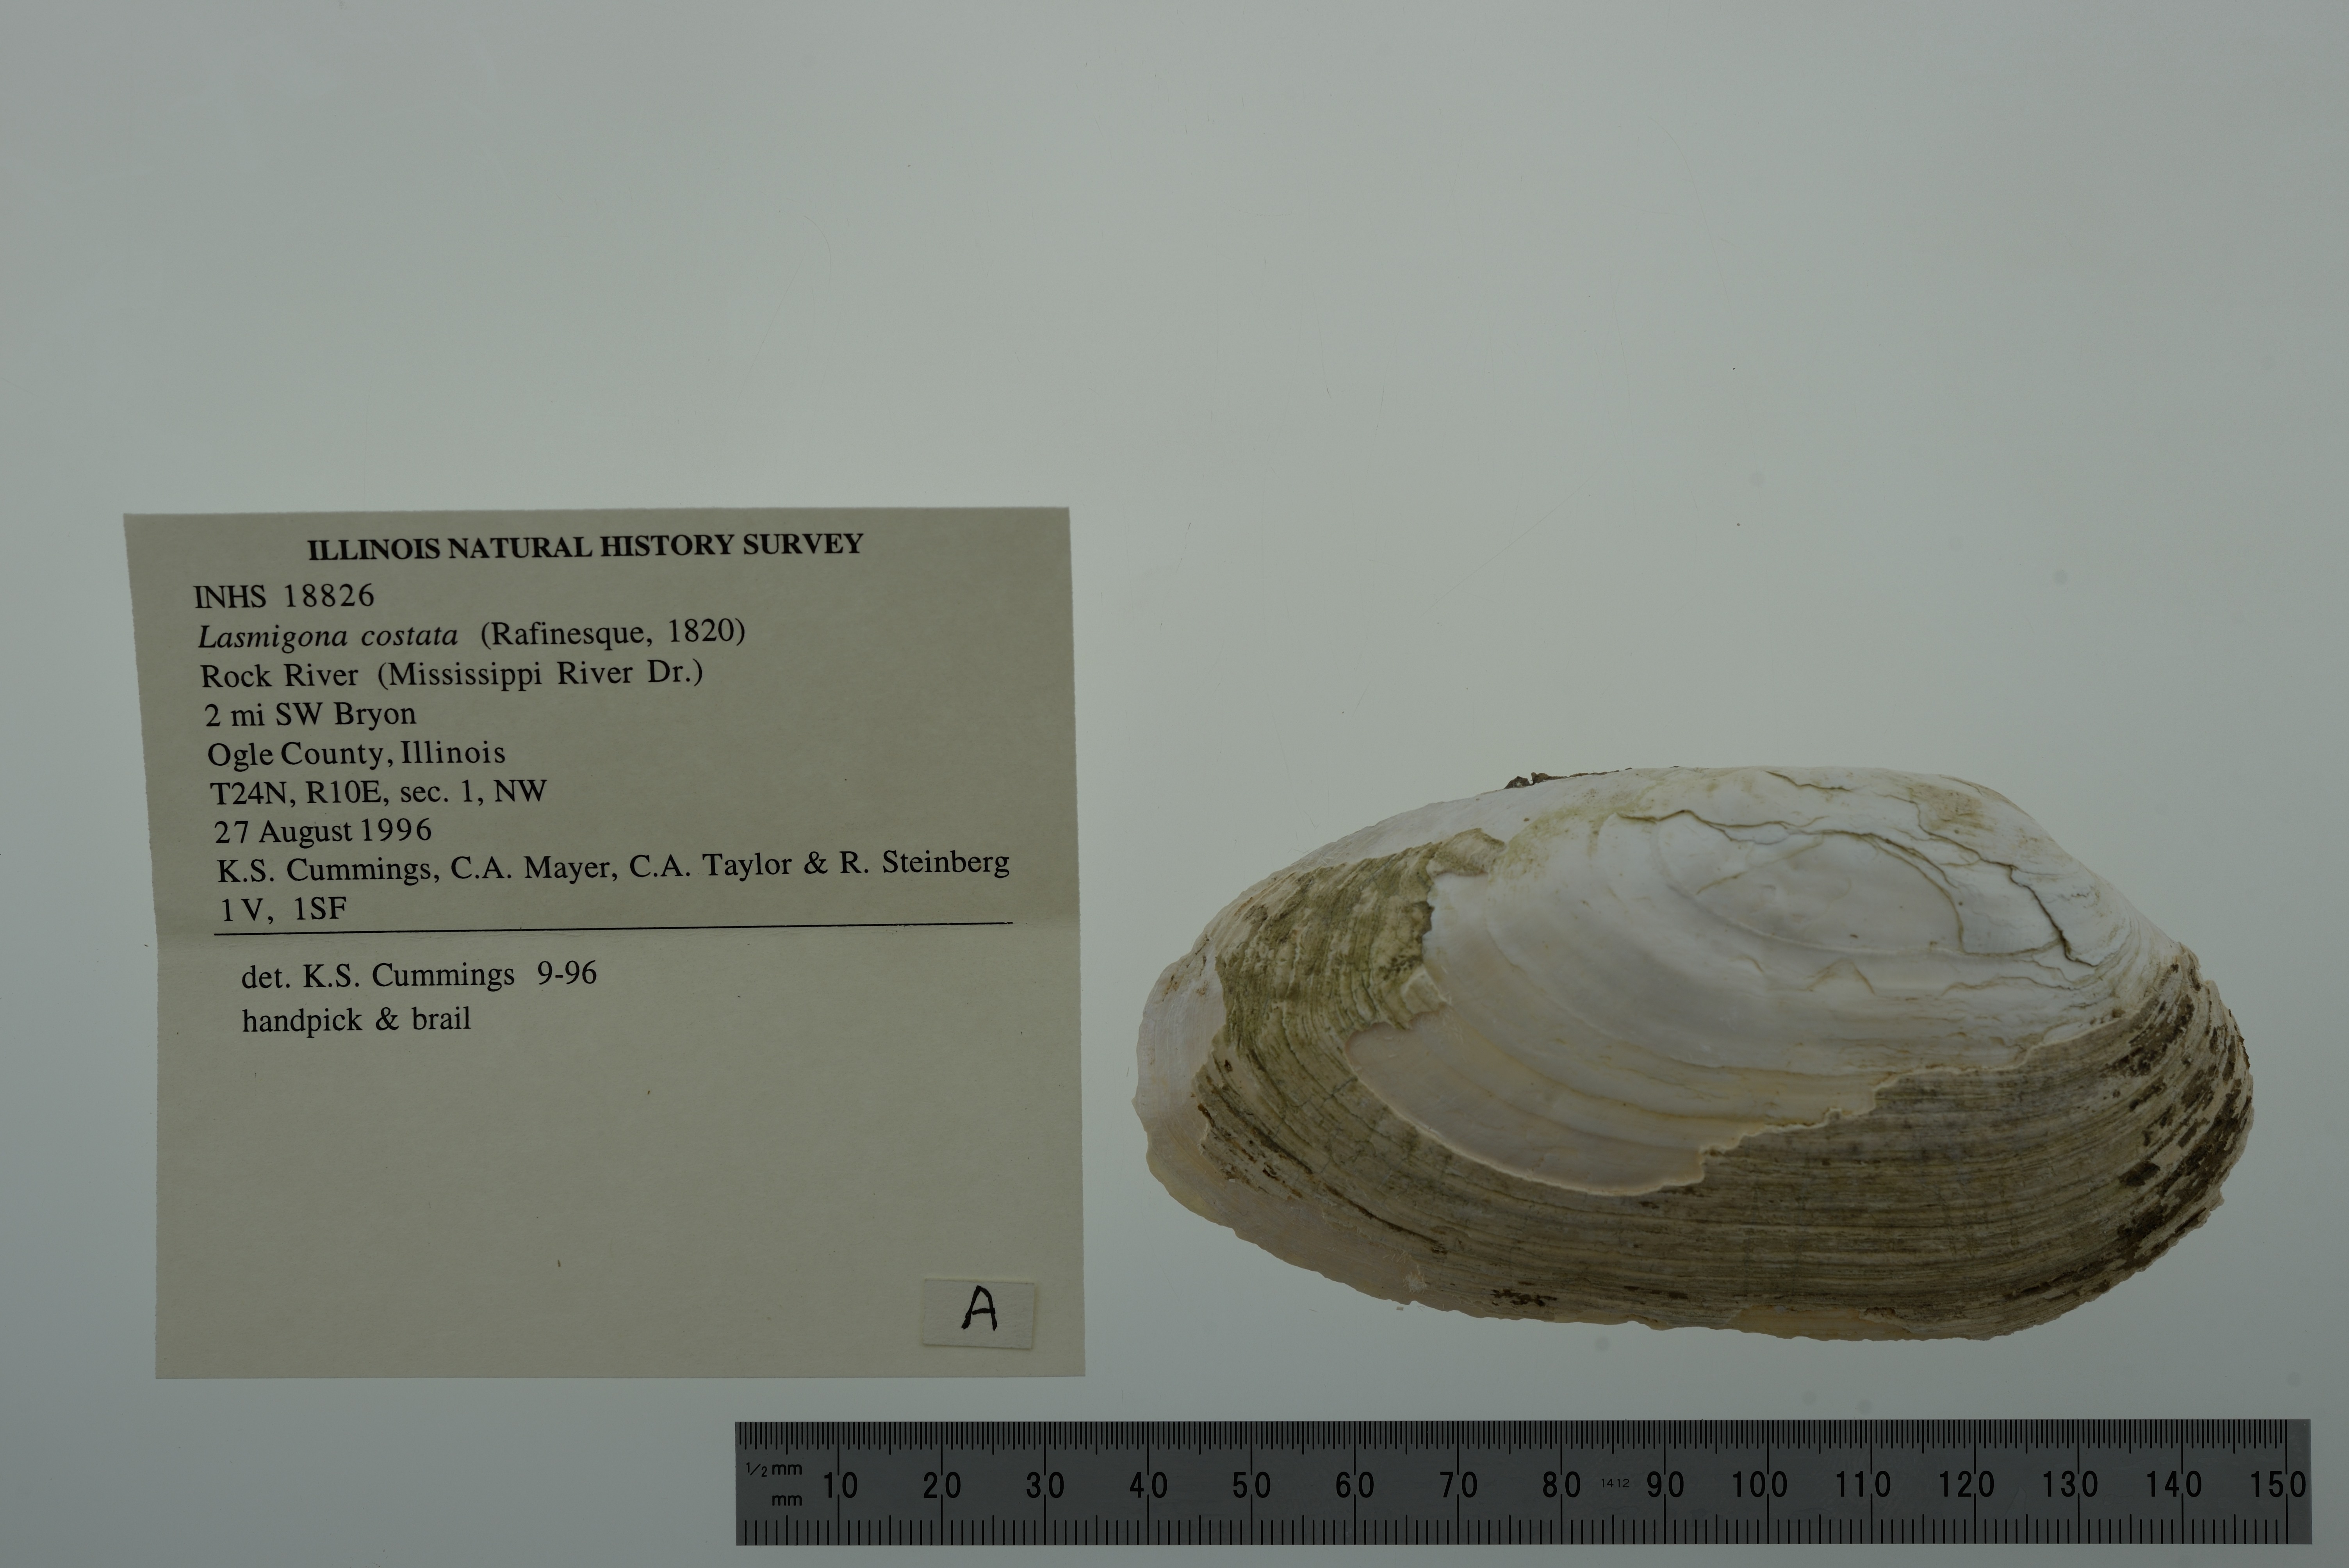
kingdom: Animalia
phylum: Mollusca
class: Bivalvia
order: Unionida
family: Unionidae
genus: Lasmigona
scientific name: Lasmigona costata
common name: Flutedshell
